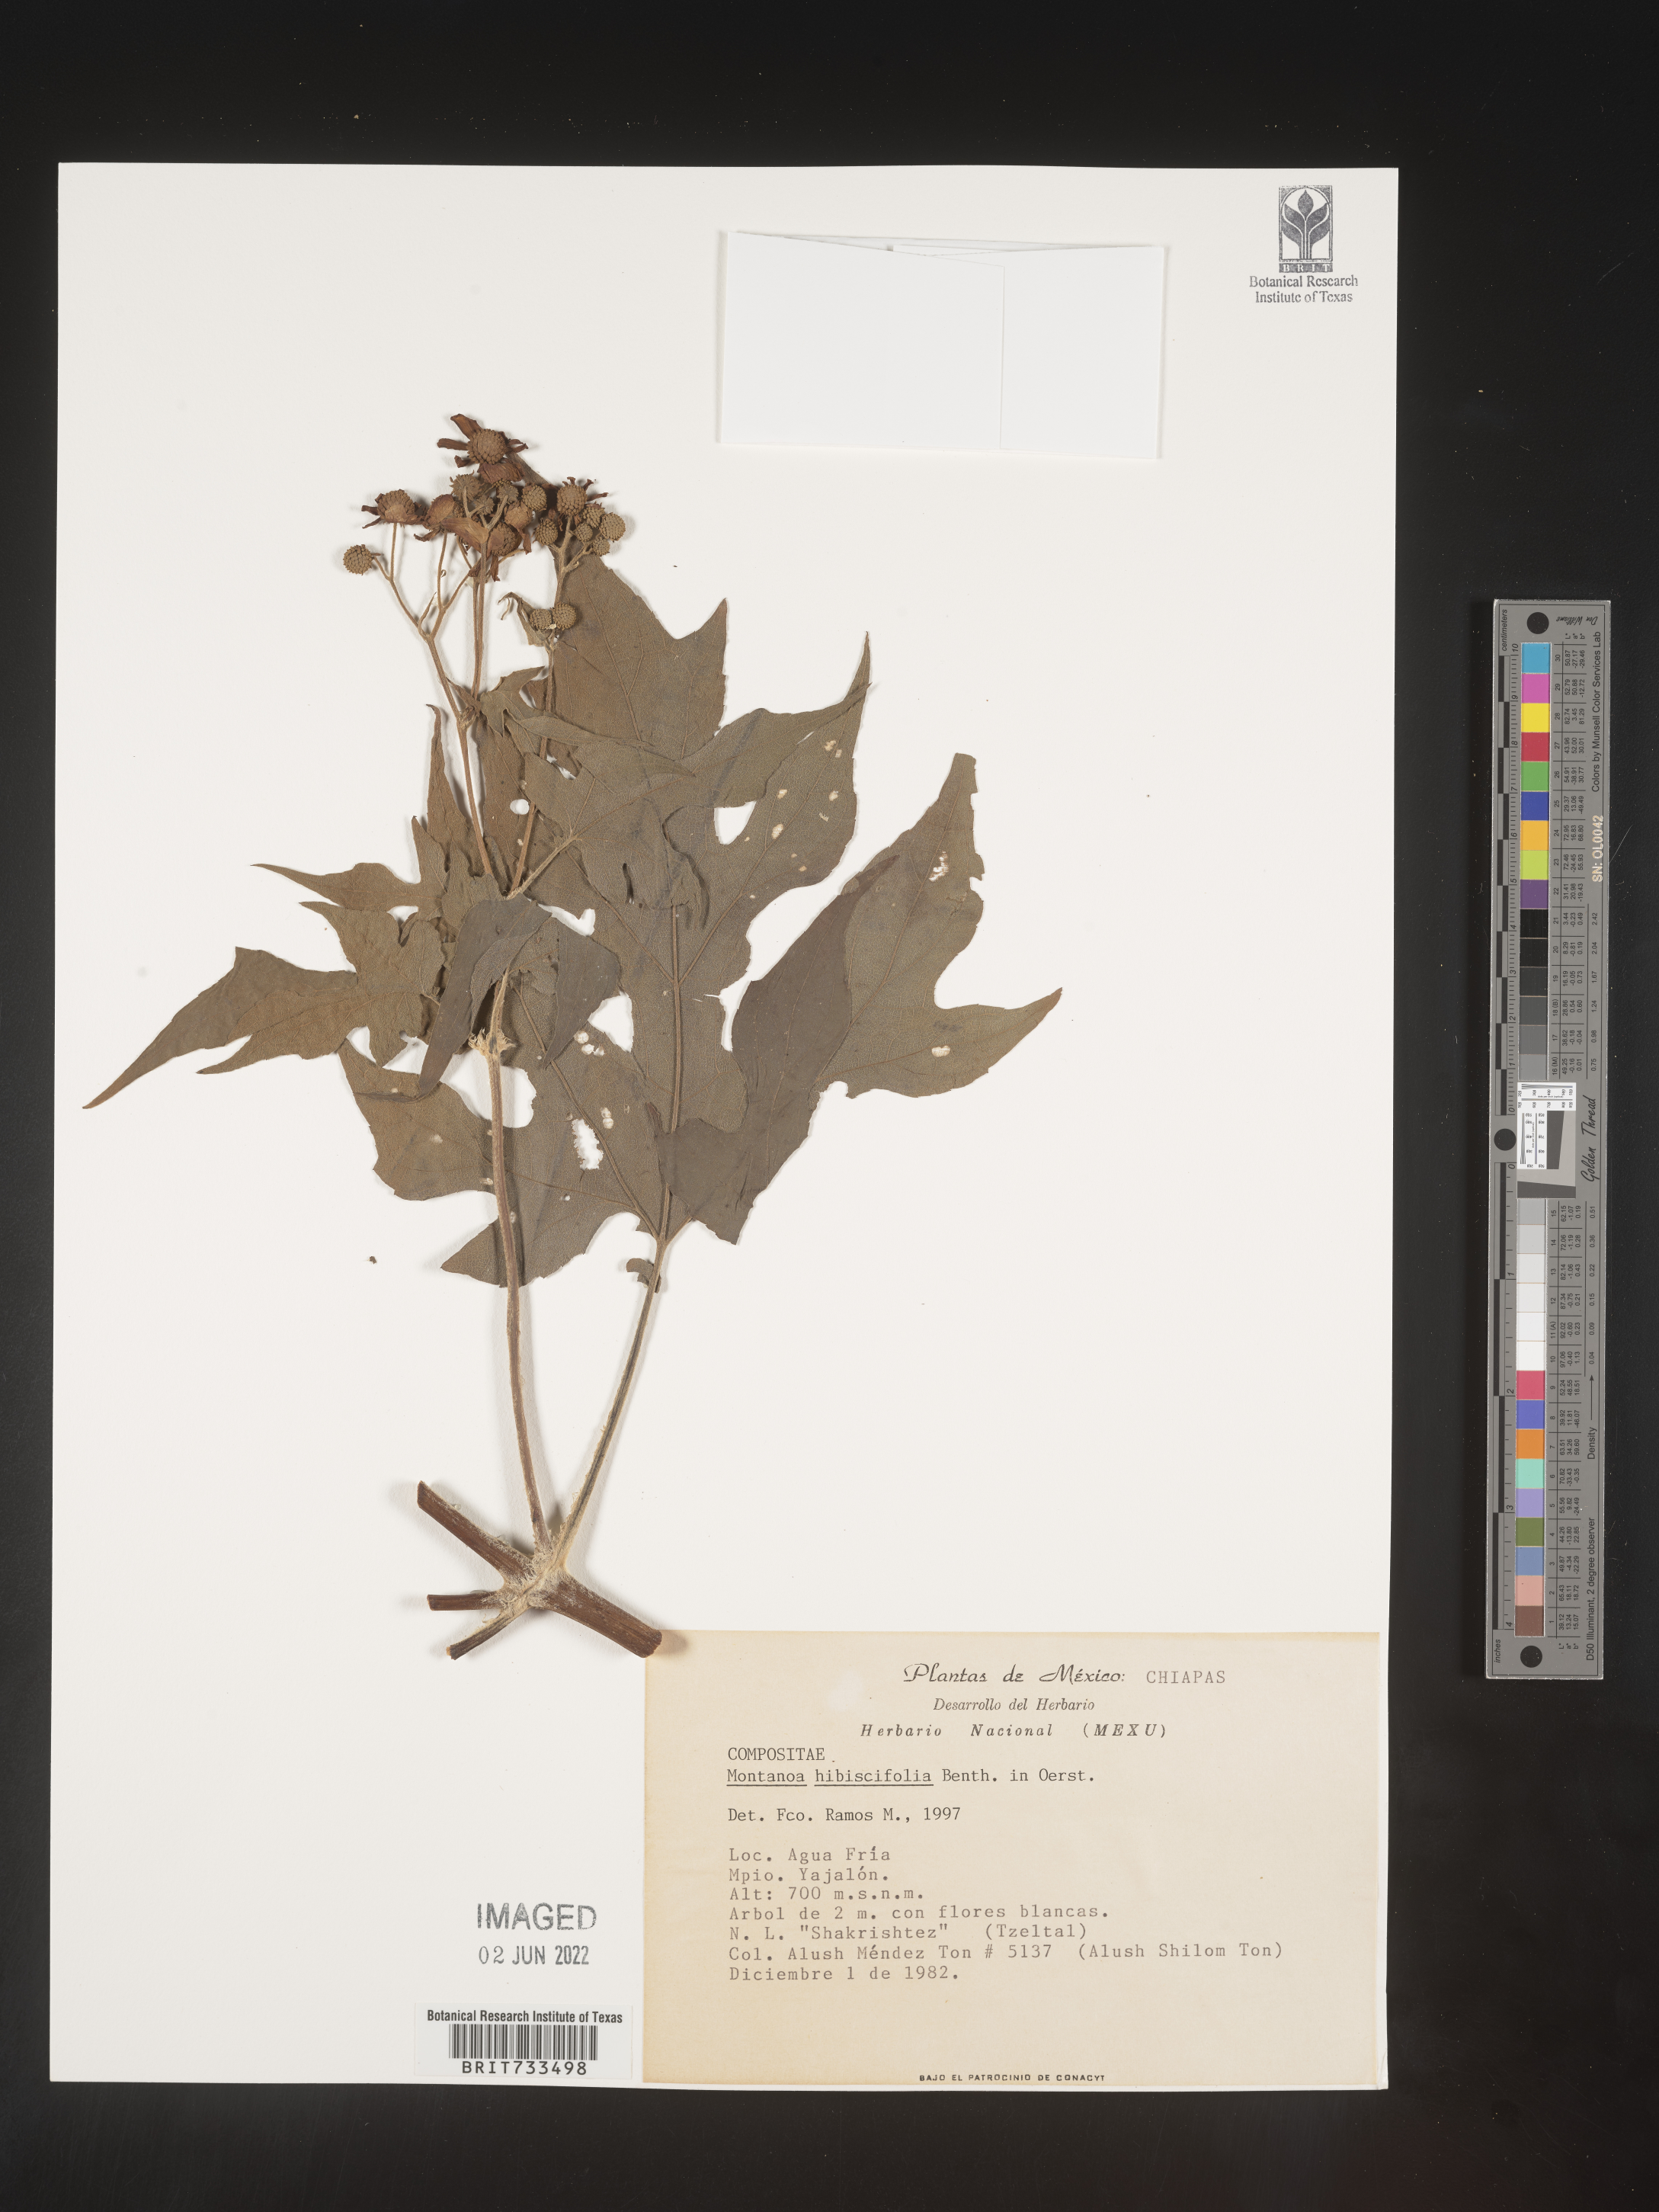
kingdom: Plantae
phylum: Tracheophyta
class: Magnoliopsida
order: Asterales
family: Asteraceae
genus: Montanoa
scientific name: Montanoa
